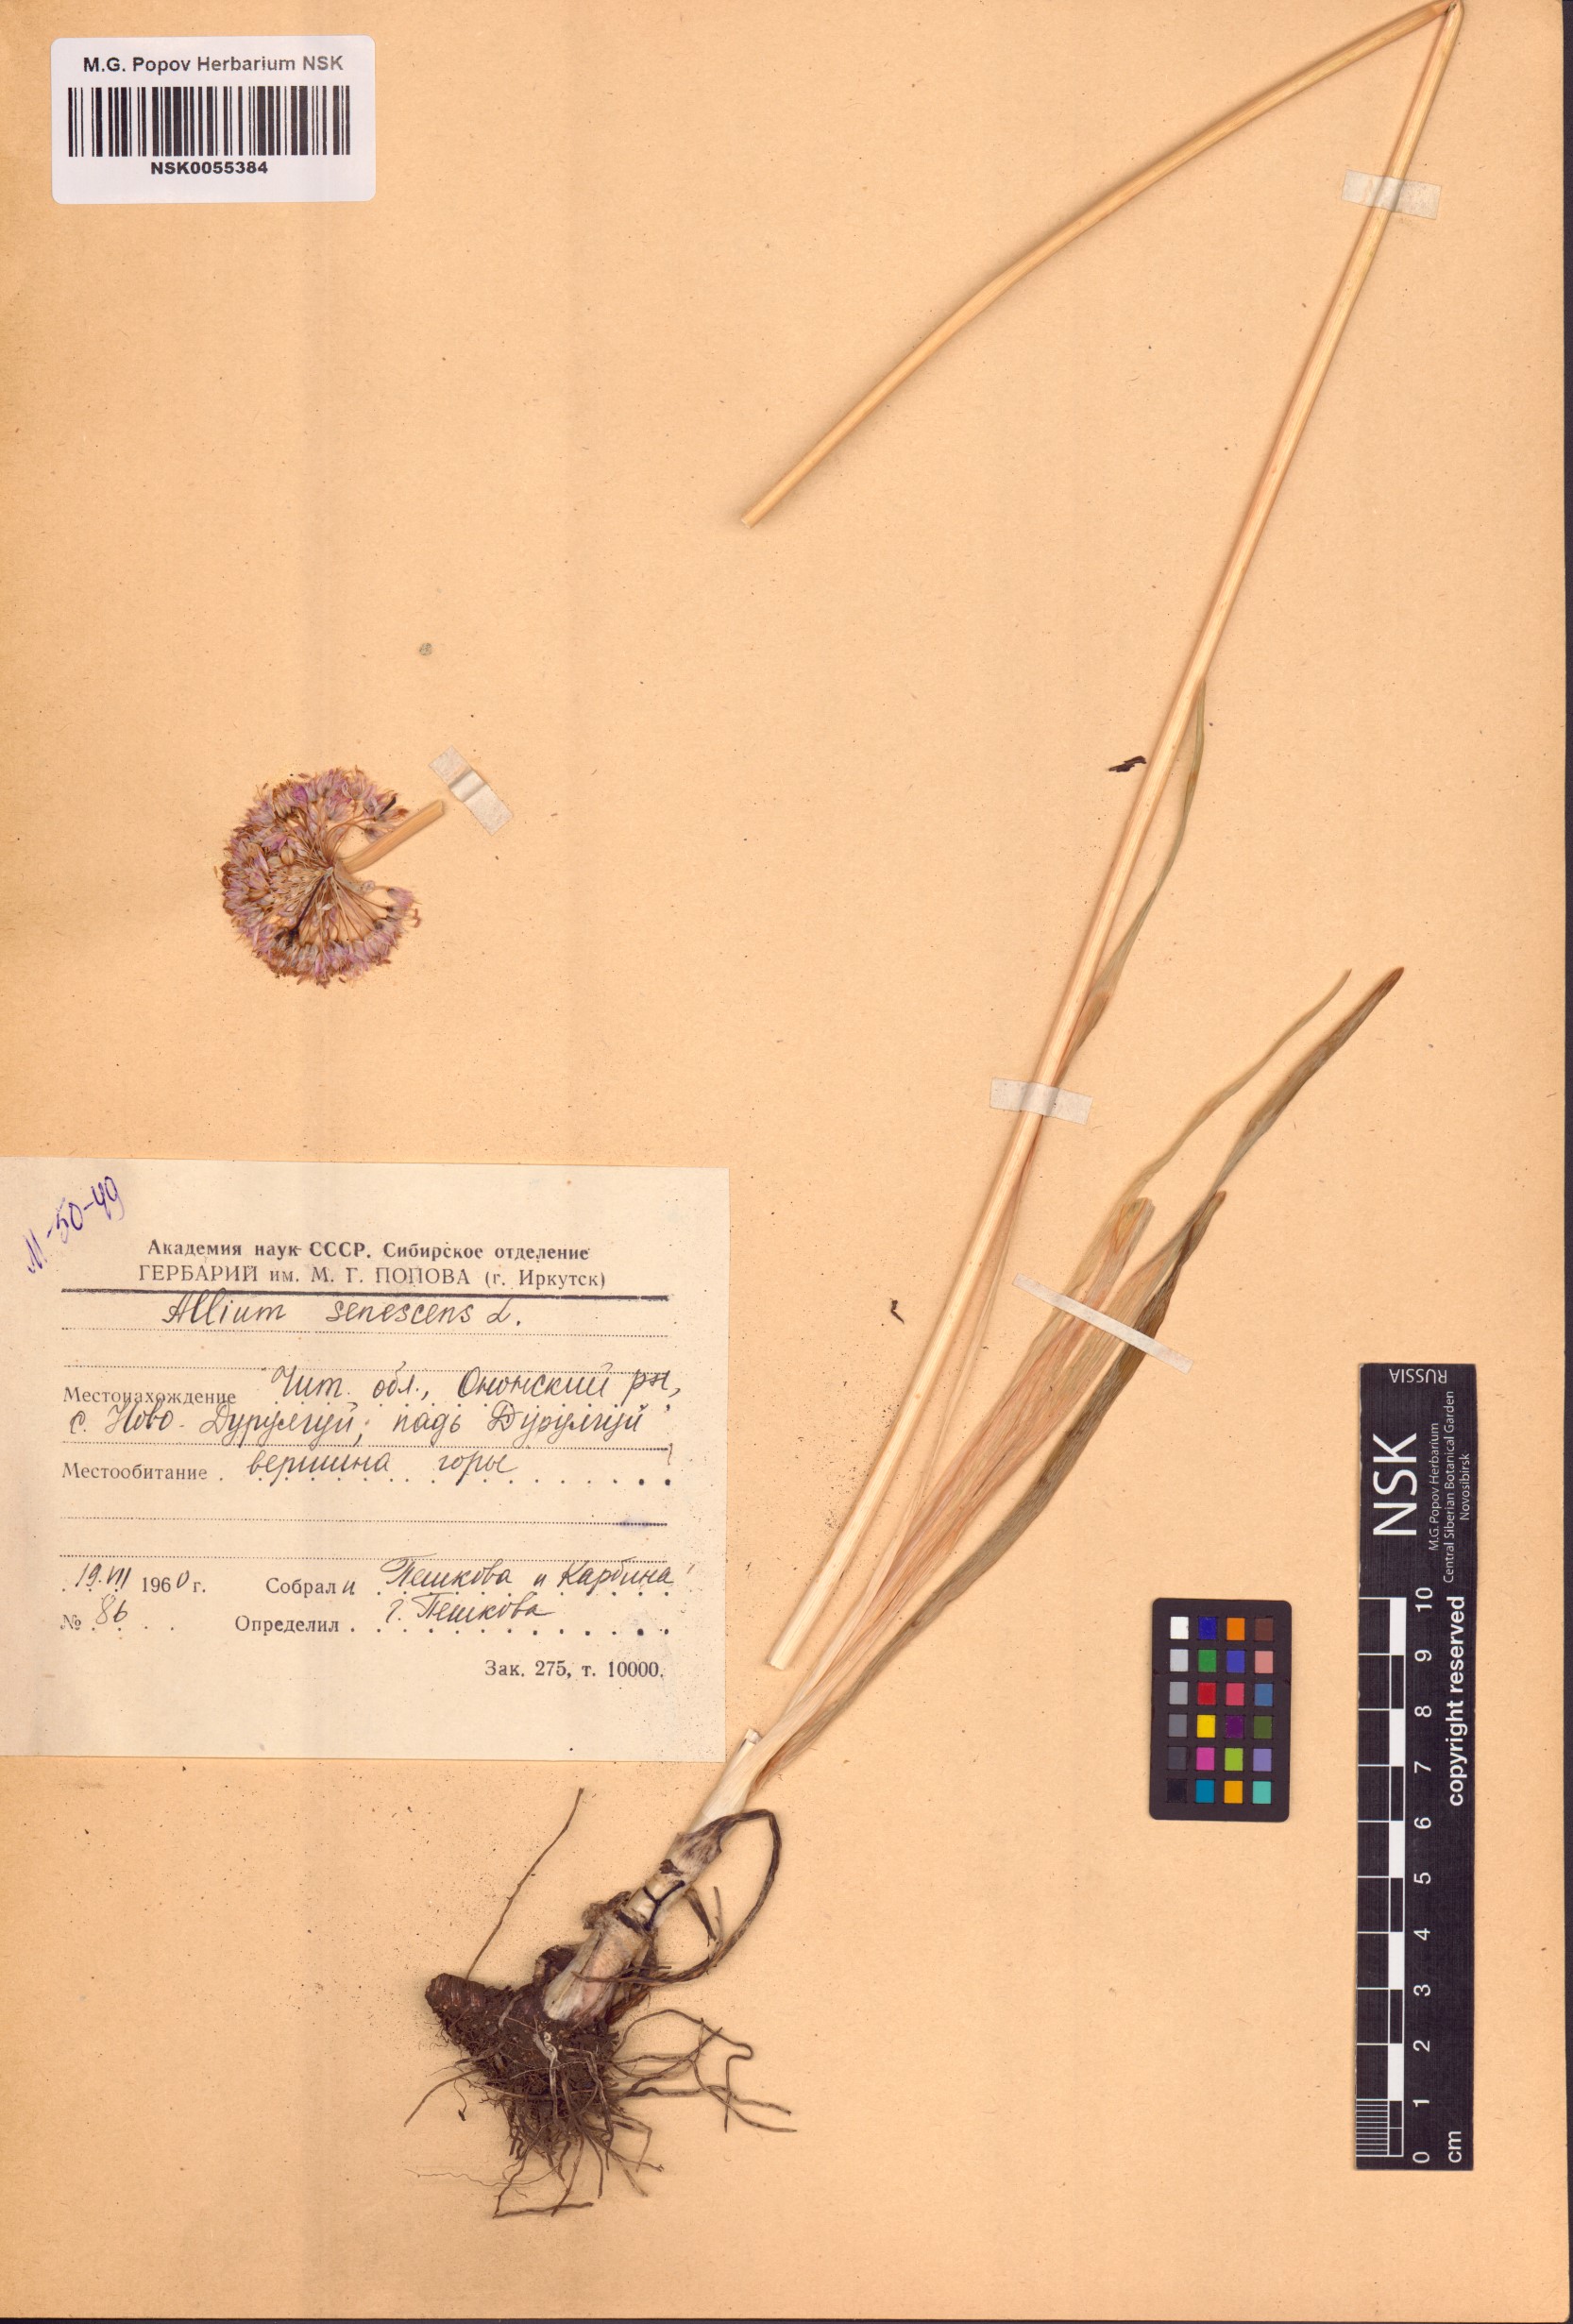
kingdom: Plantae
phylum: Tracheophyta
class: Liliopsida
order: Asparagales
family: Amaryllidaceae
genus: Allium
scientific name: Allium senescens
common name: German garlic
